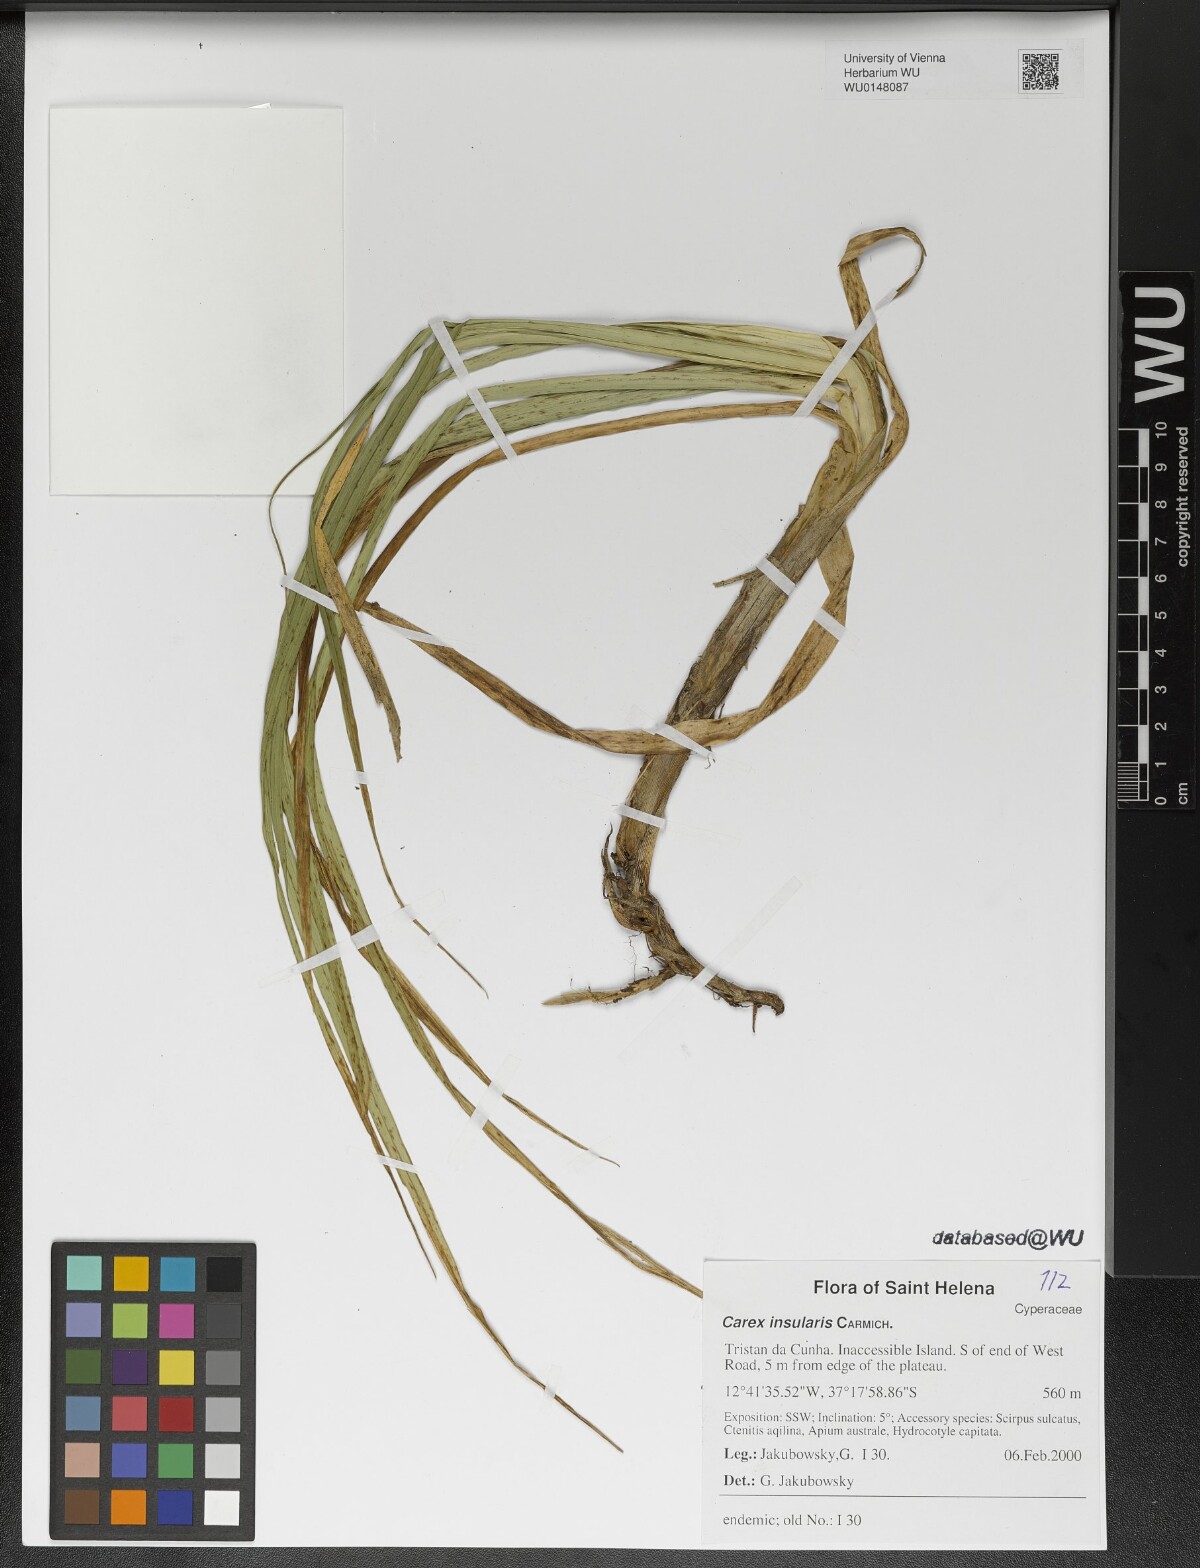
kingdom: Plantae
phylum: Tracheophyta
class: Liliopsida
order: Poales
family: Cyperaceae
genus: Carex
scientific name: Carex insularis
